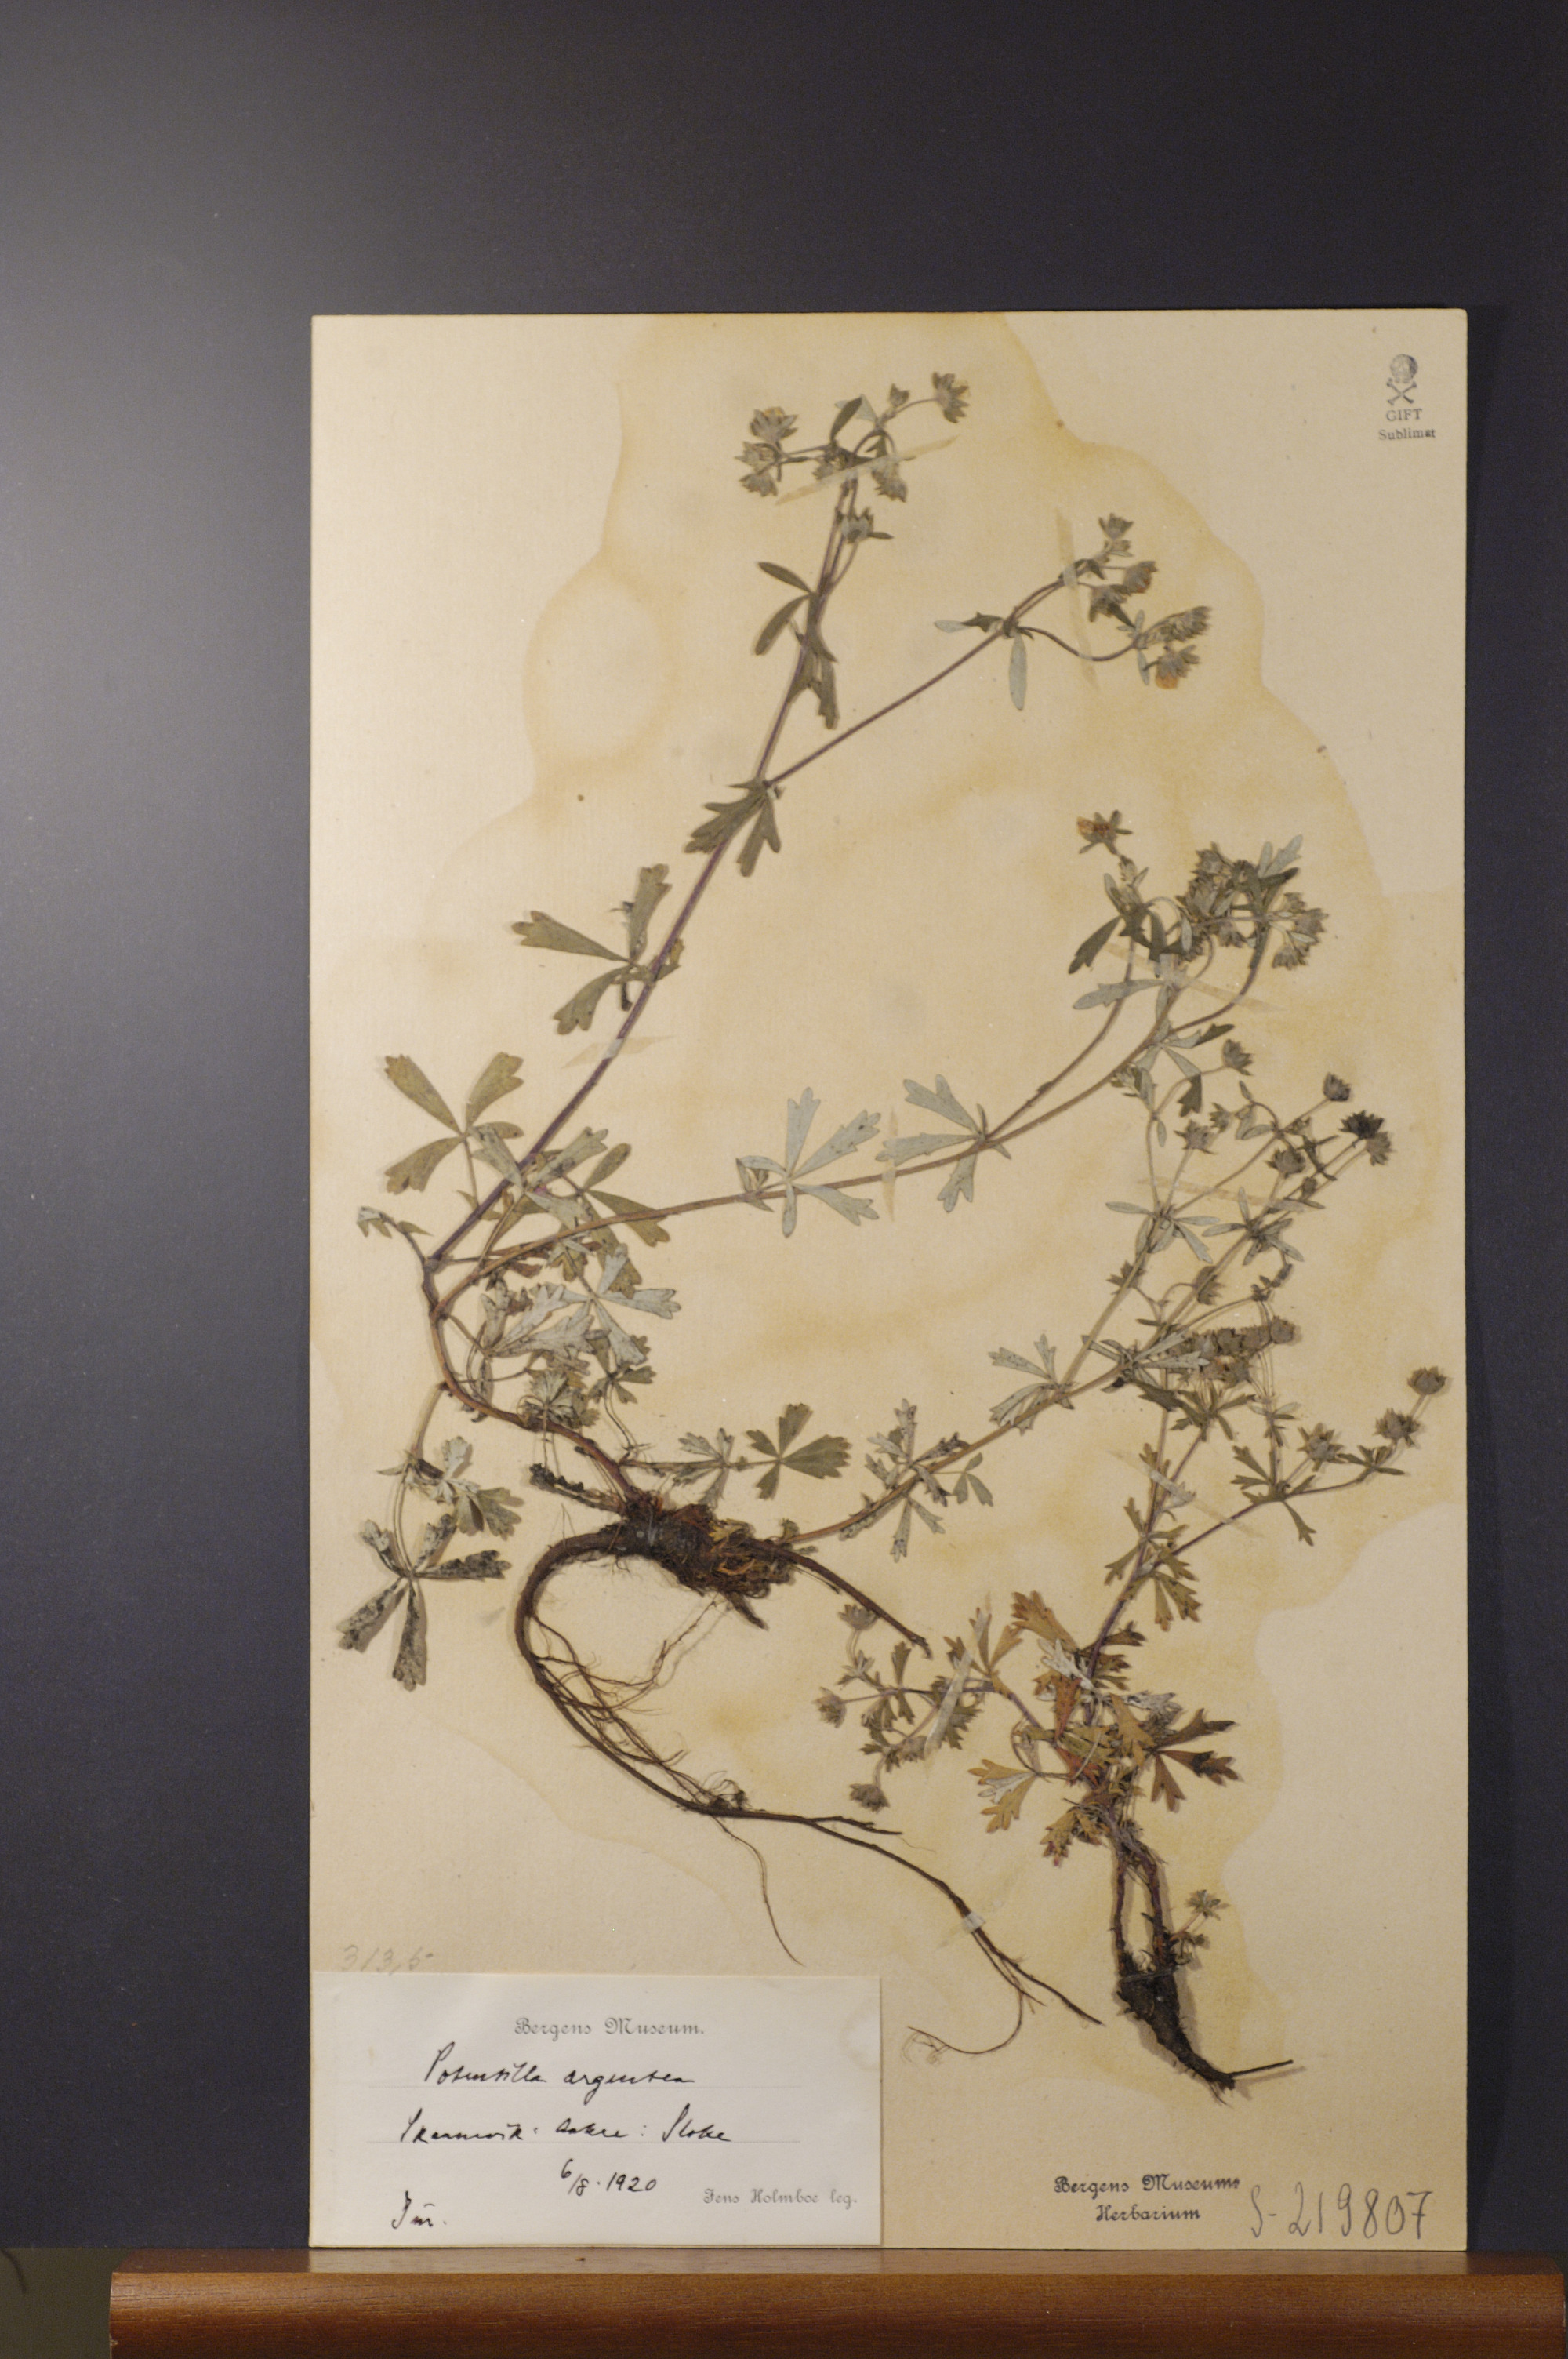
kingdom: Plantae
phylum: Tracheophyta
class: Magnoliopsida
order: Rosales
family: Rosaceae
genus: Potentilla
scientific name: Potentilla argentea
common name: Hoary cinquefoil
